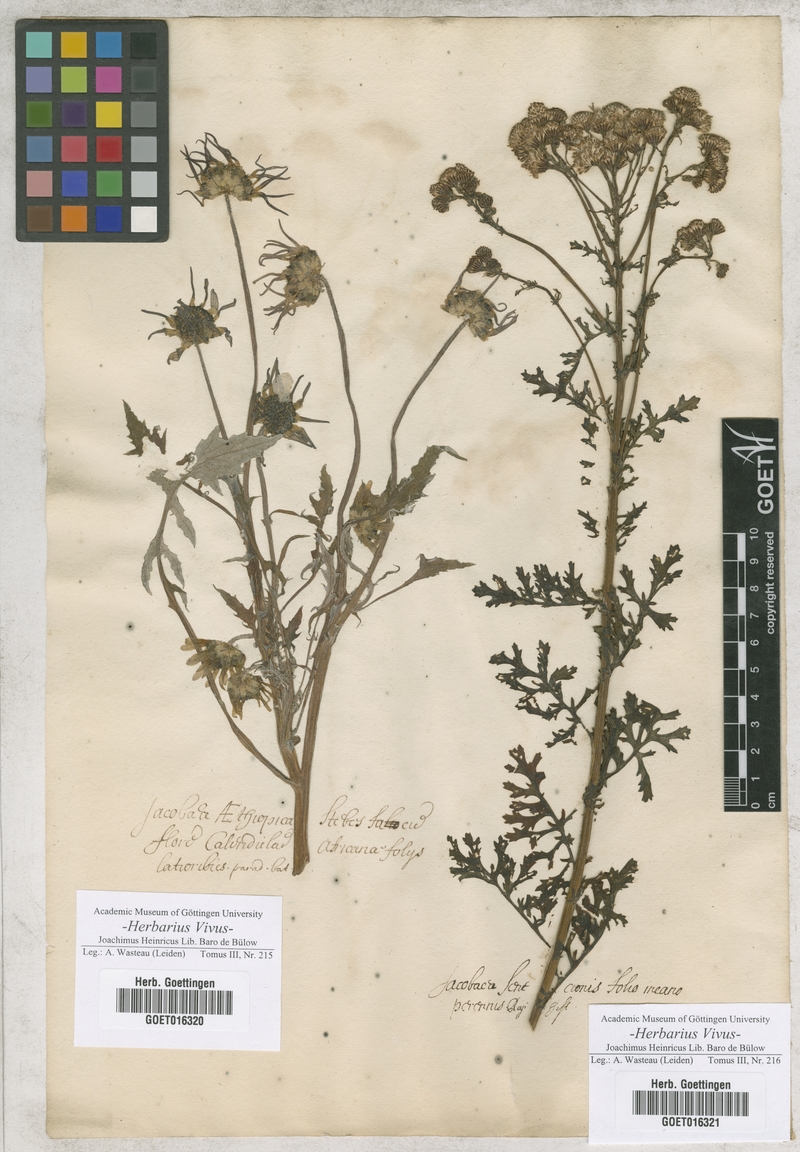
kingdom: Plantae
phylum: Tracheophyta
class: Magnoliopsida
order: Asterales
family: Asteraceae
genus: Jacobaea
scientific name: Jacobaea
